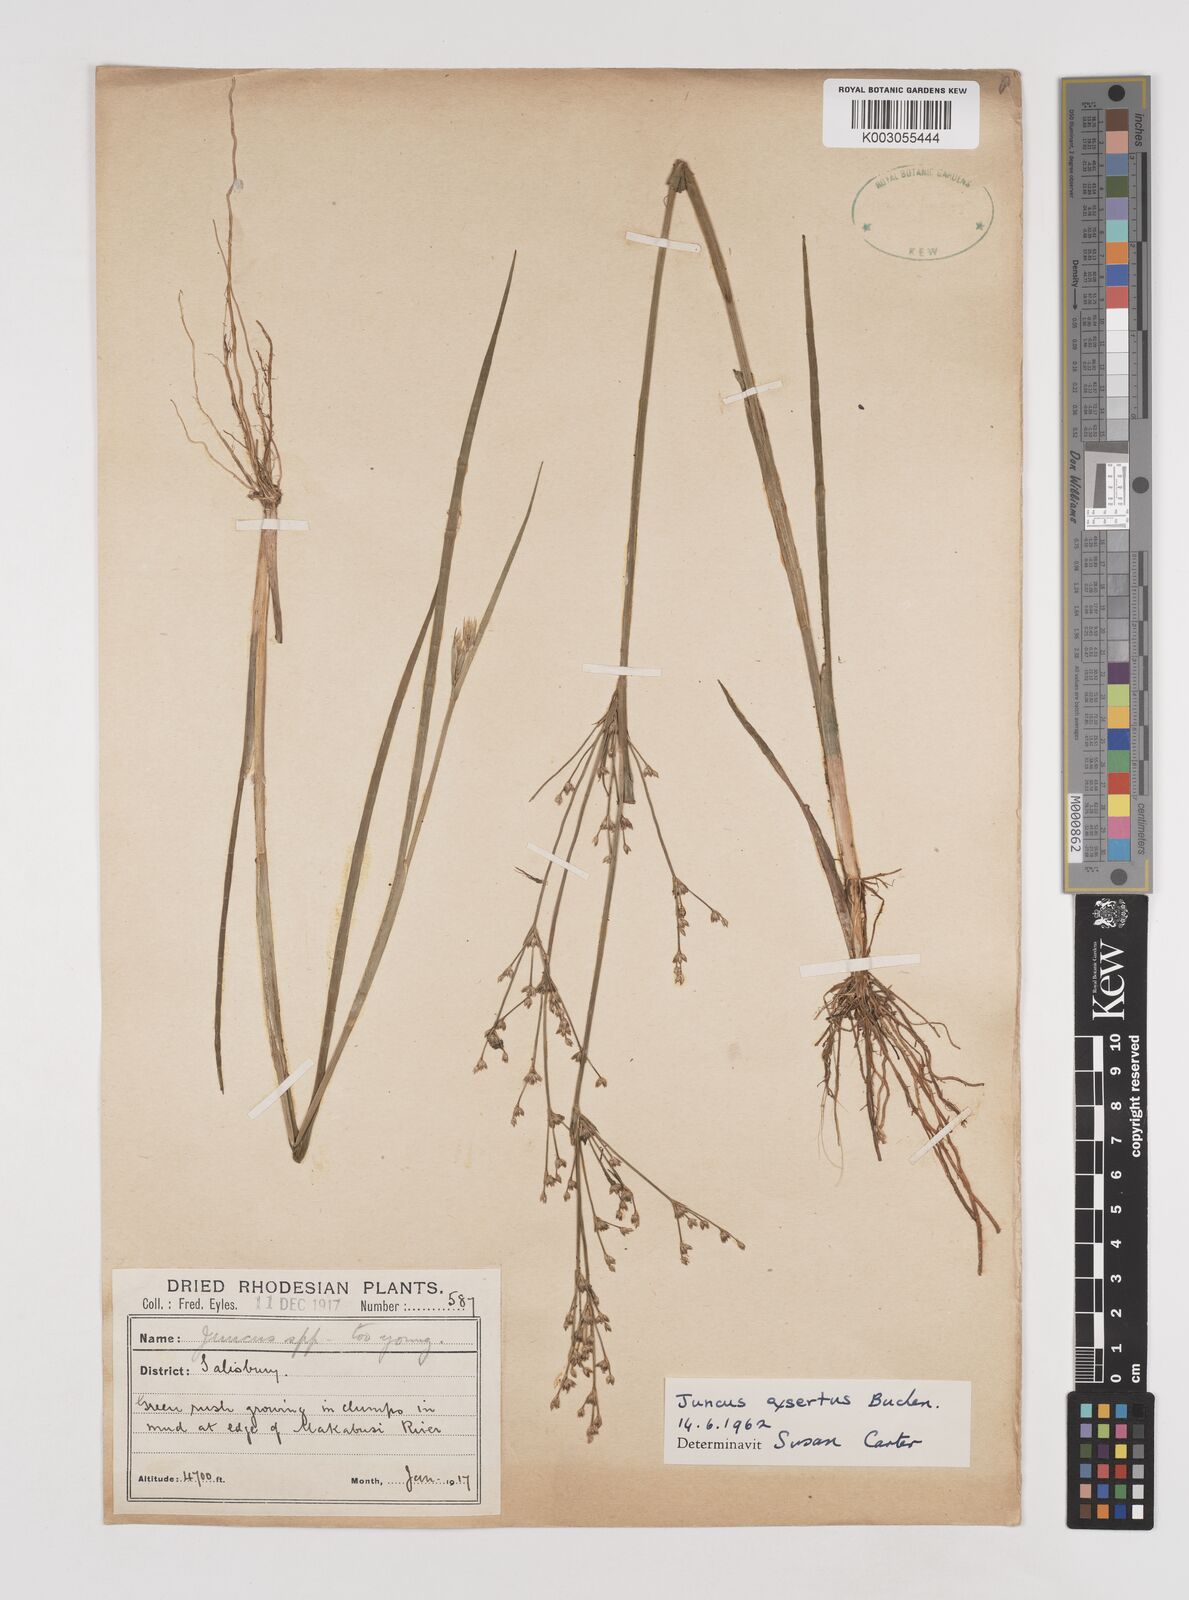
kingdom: Plantae
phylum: Tracheophyta
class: Liliopsida
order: Poales
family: Juncaceae
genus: Juncus
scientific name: Juncus exsertus
